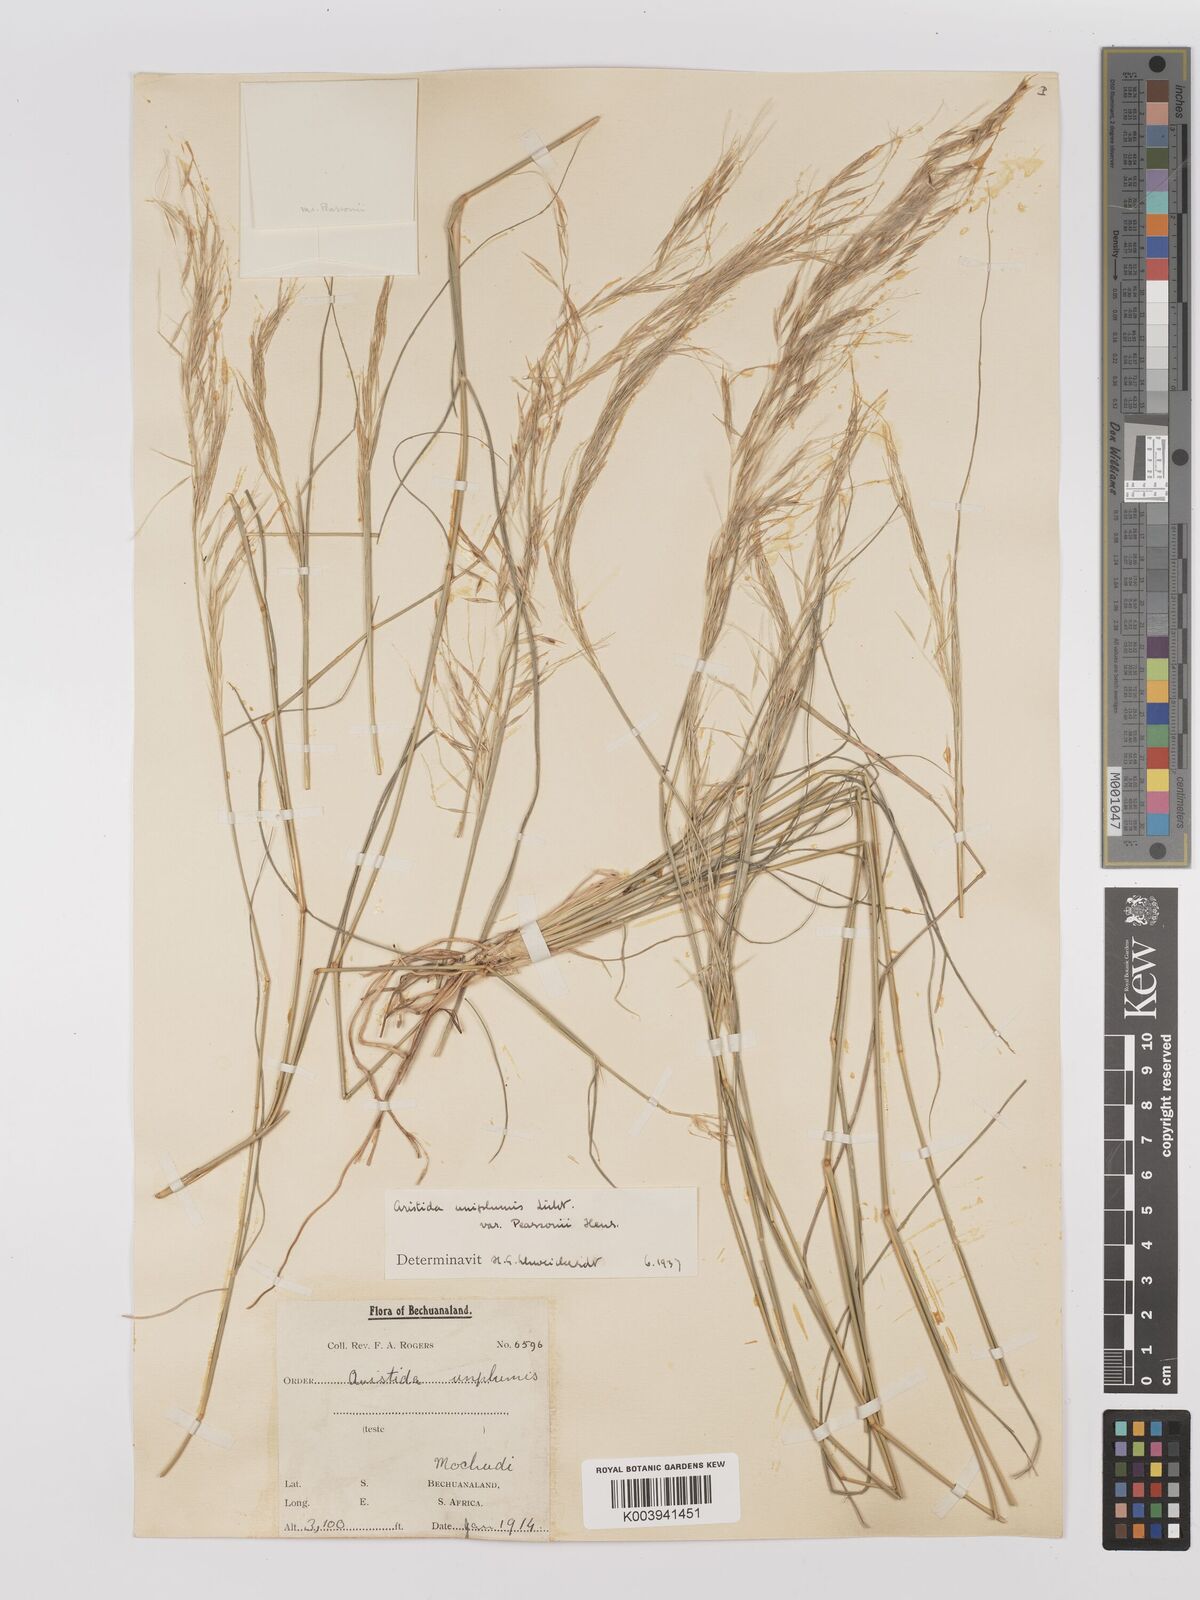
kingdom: Plantae
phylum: Tracheophyta
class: Liliopsida
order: Poales
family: Poaceae
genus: Stipagrostis
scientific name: Stipagrostis uniplumis
